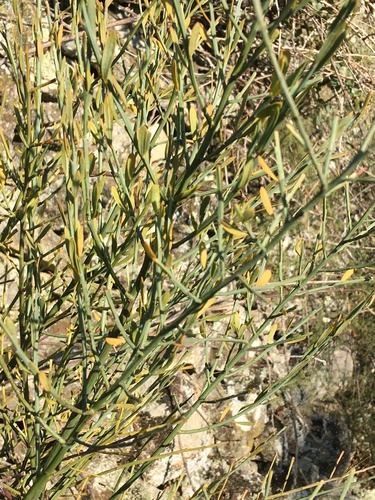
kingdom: Plantae
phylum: Tracheophyta
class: Magnoliopsida
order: Santalales
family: Santalaceae
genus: Osyris
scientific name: Osyris alba
